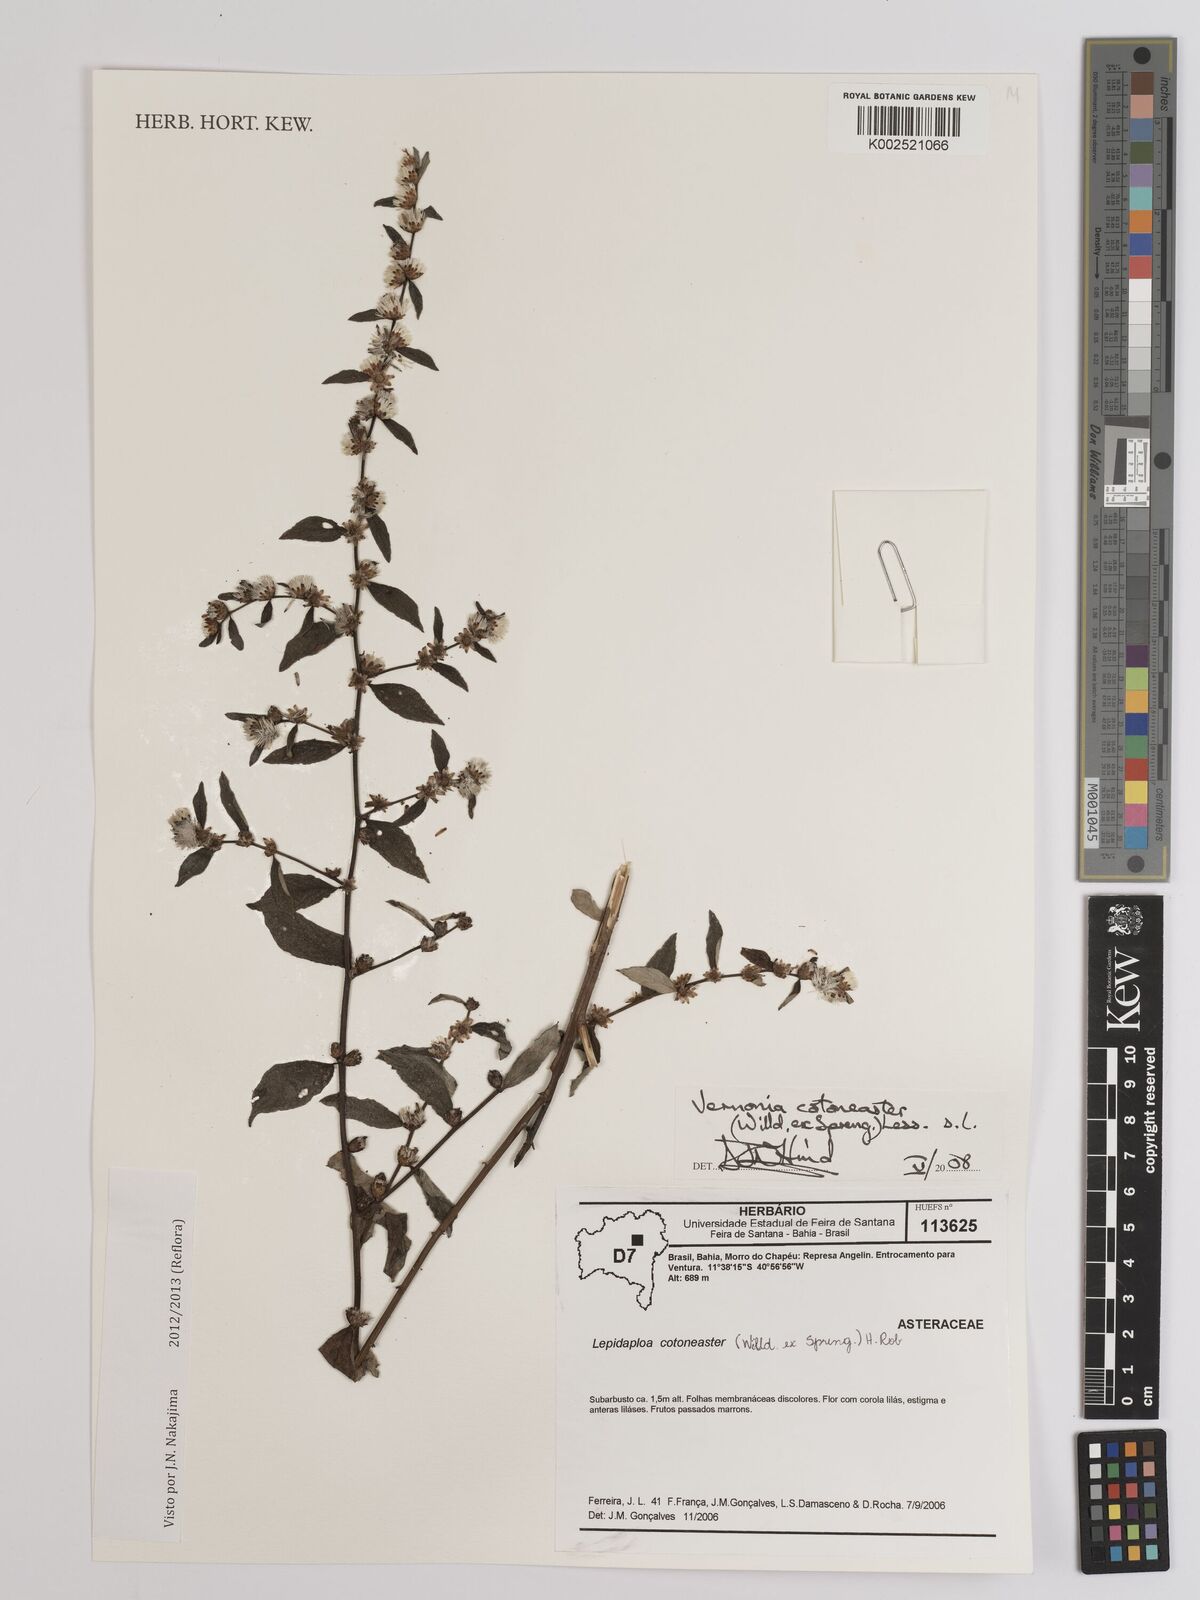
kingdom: Plantae
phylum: Tracheophyta
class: Magnoliopsida
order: Asterales
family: Asteraceae
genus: Lepidaploa
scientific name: Lepidaploa cotoneaster
